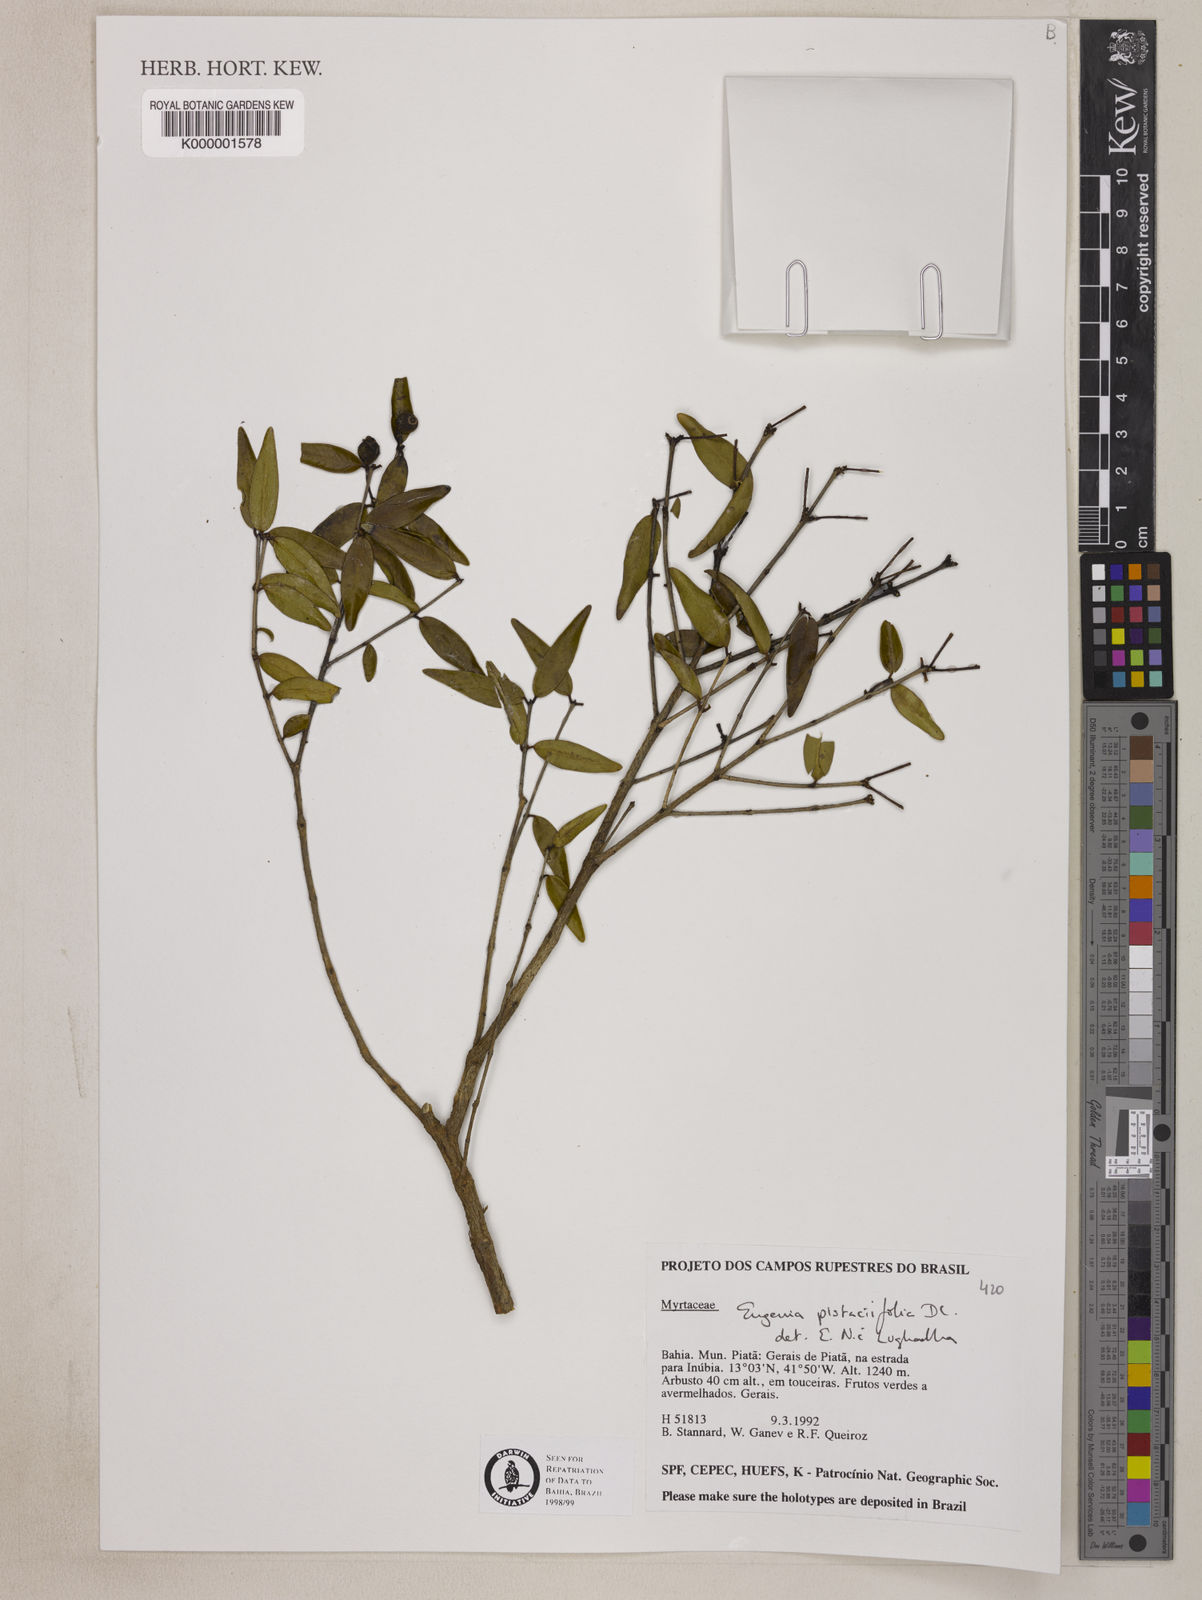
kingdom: Plantae
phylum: Tracheophyta
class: Magnoliopsida
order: Myrtales
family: Myrtaceae
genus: Eugenia
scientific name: Eugenia pistaciifolia
